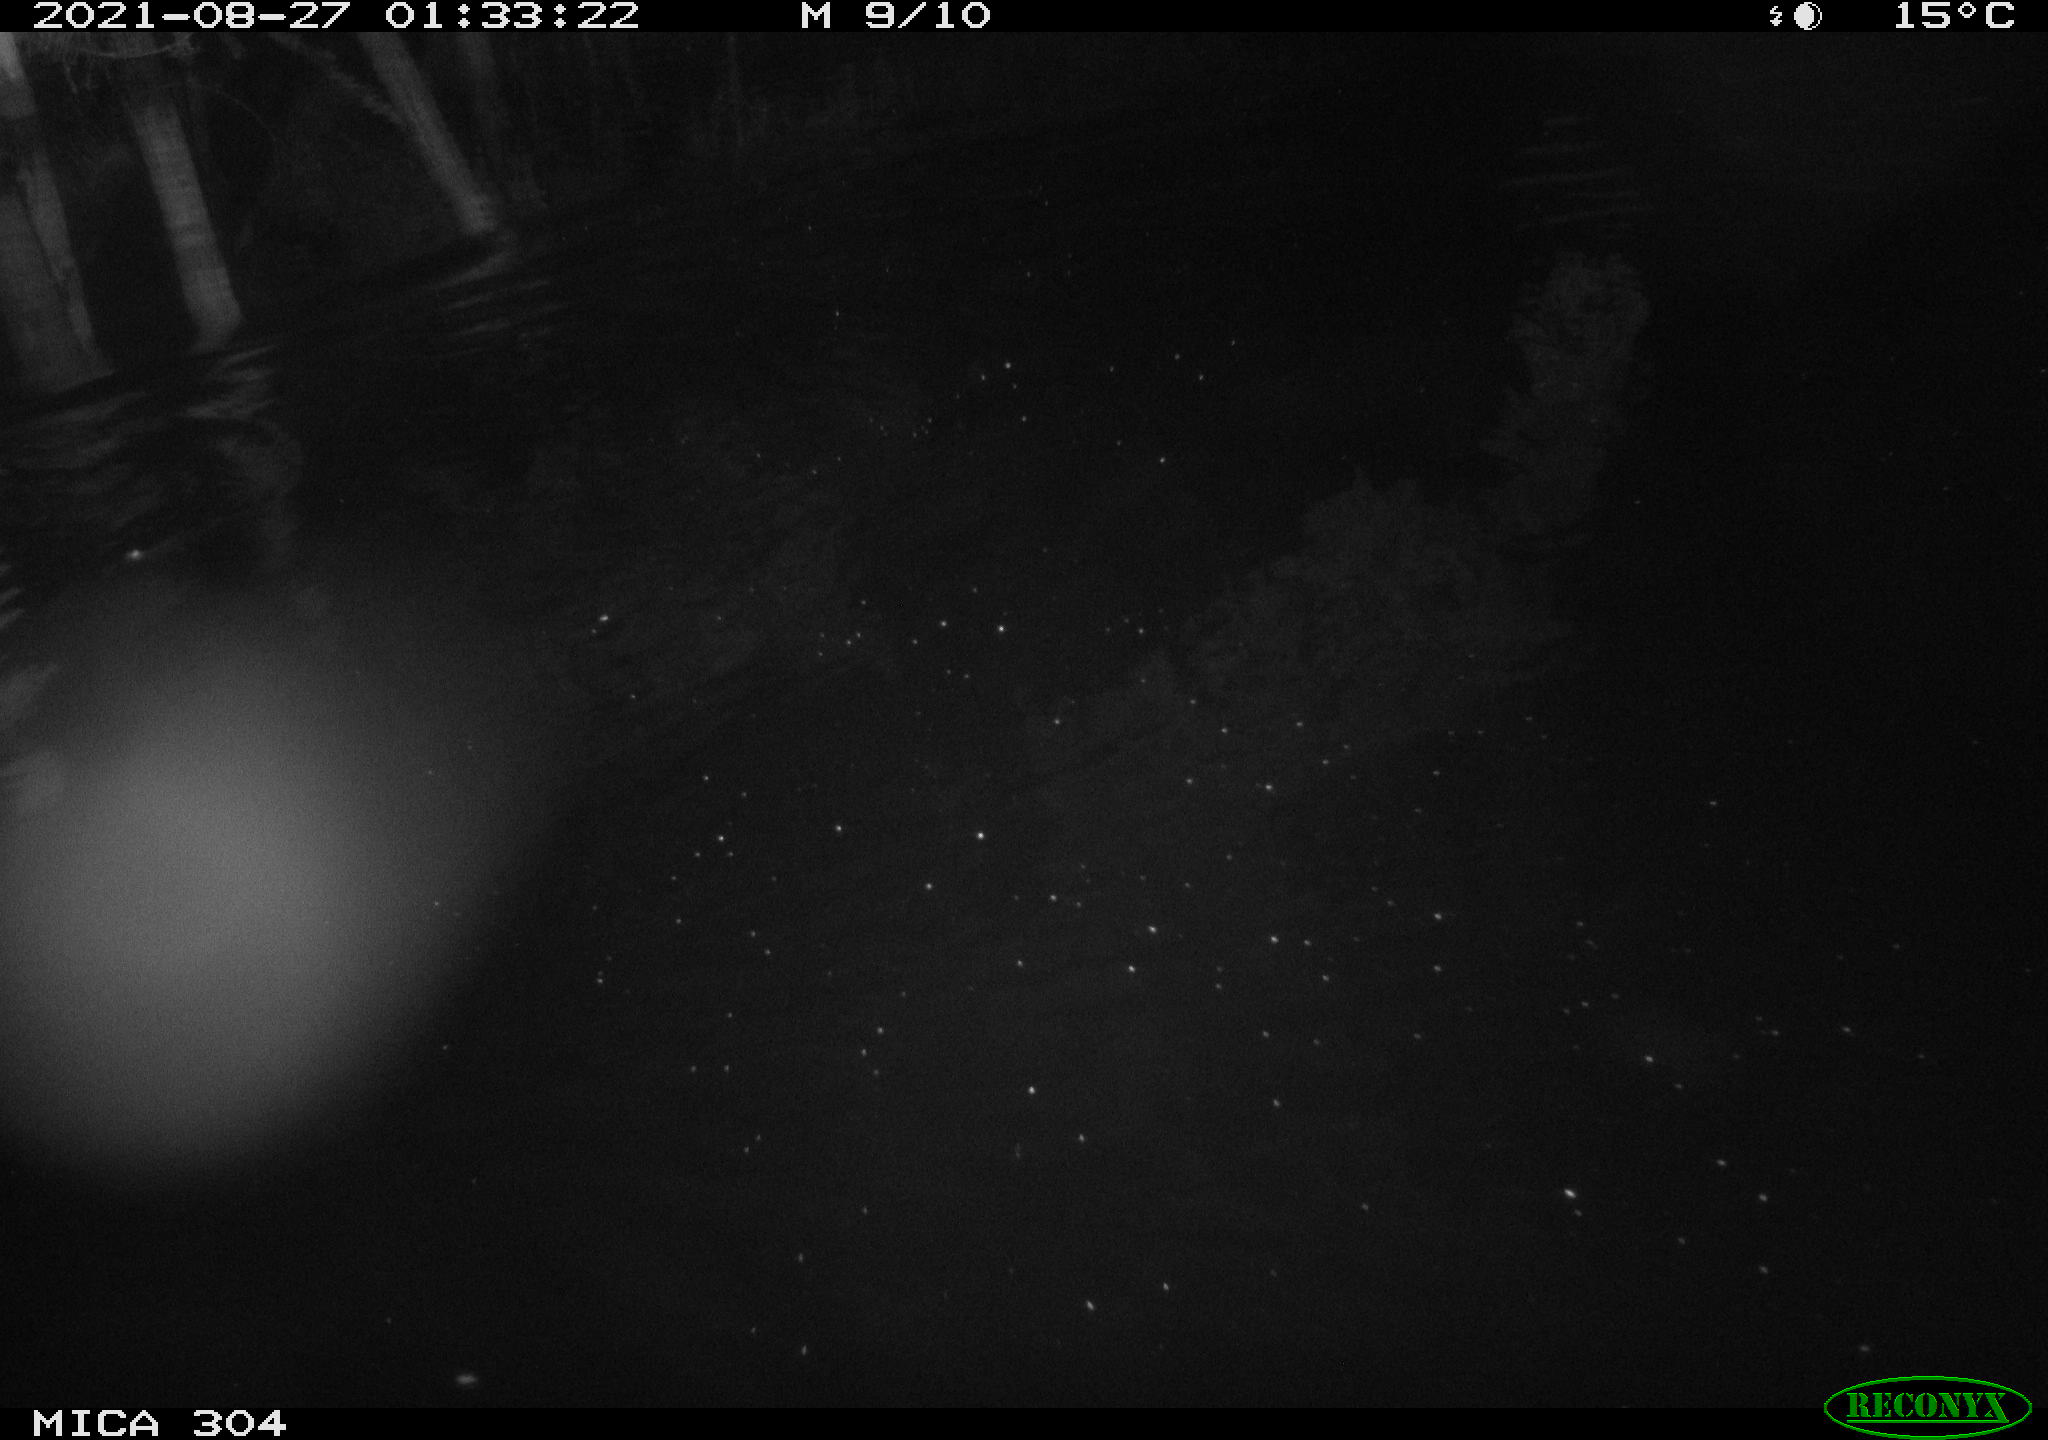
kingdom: Animalia
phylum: Chordata
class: Mammalia
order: Rodentia
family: Muridae
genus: Rattus
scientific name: Rattus norvegicus
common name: Brown rat
